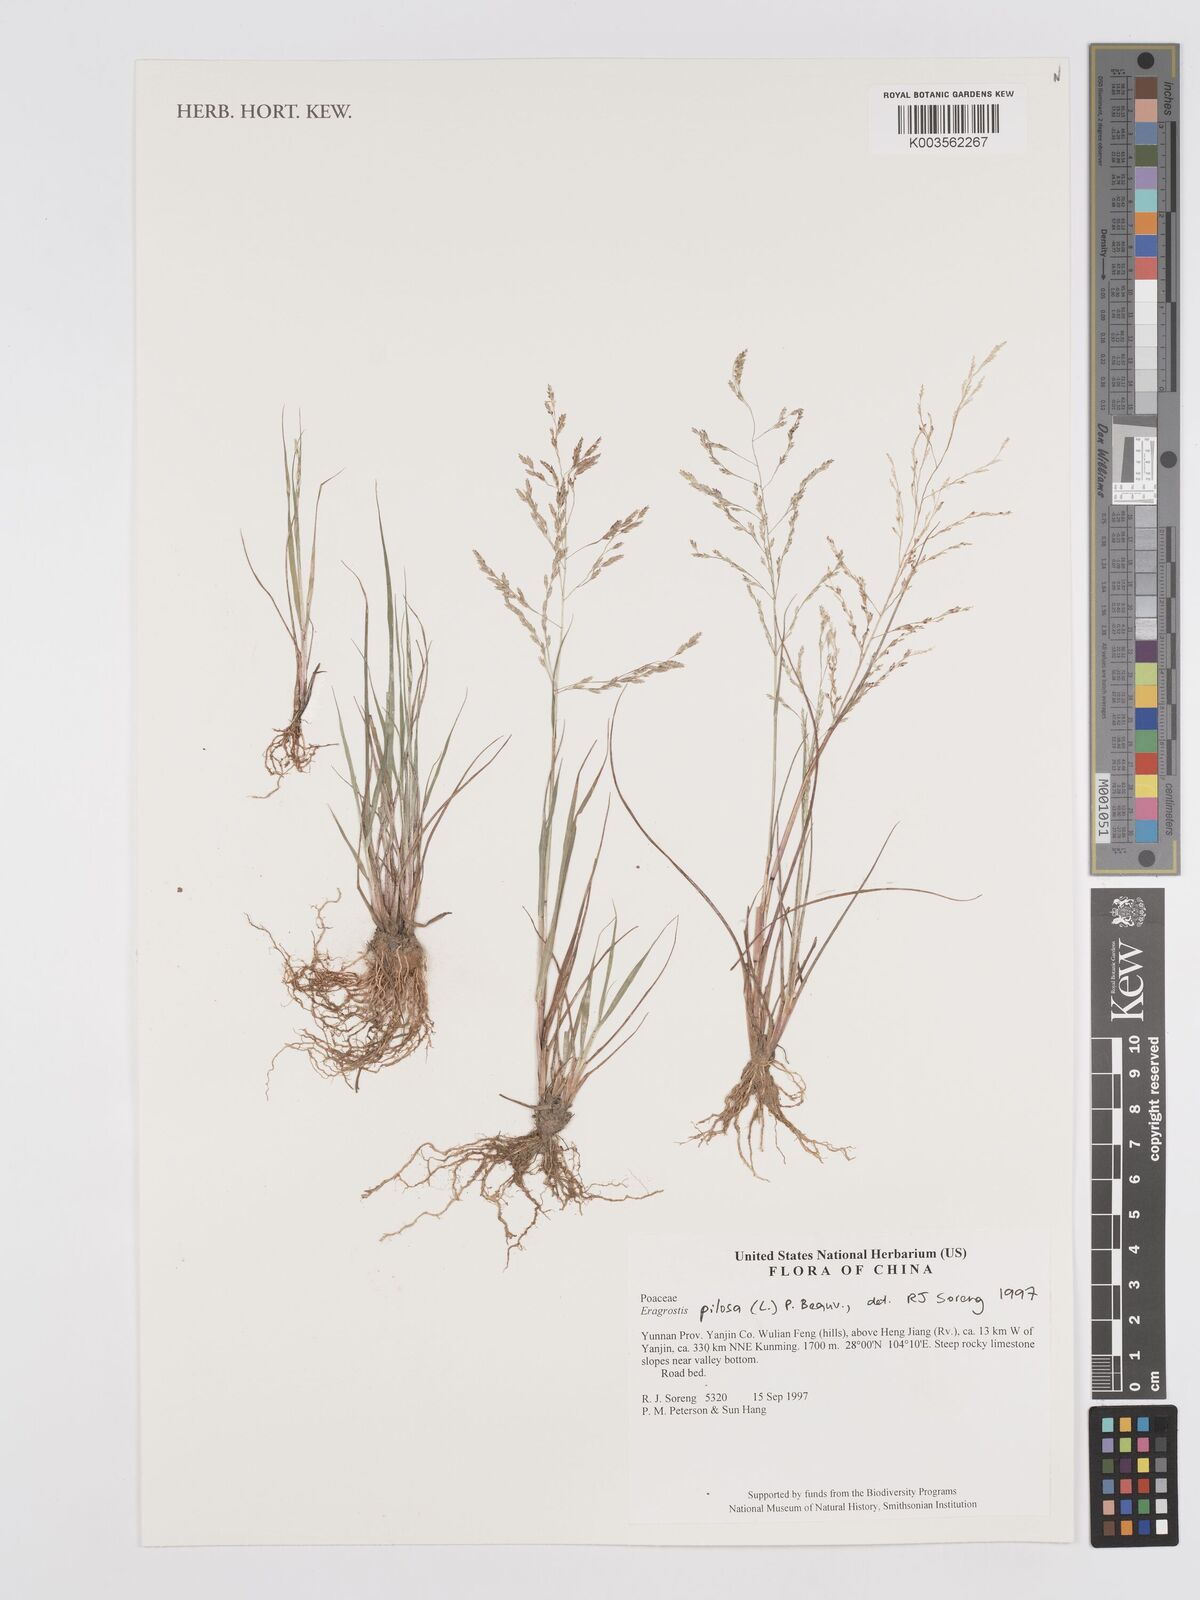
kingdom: Plantae
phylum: Tracheophyta
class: Liliopsida
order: Poales
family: Poaceae
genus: Eragrostis
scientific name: Eragrostis pilosa
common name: Indian lovegrass
